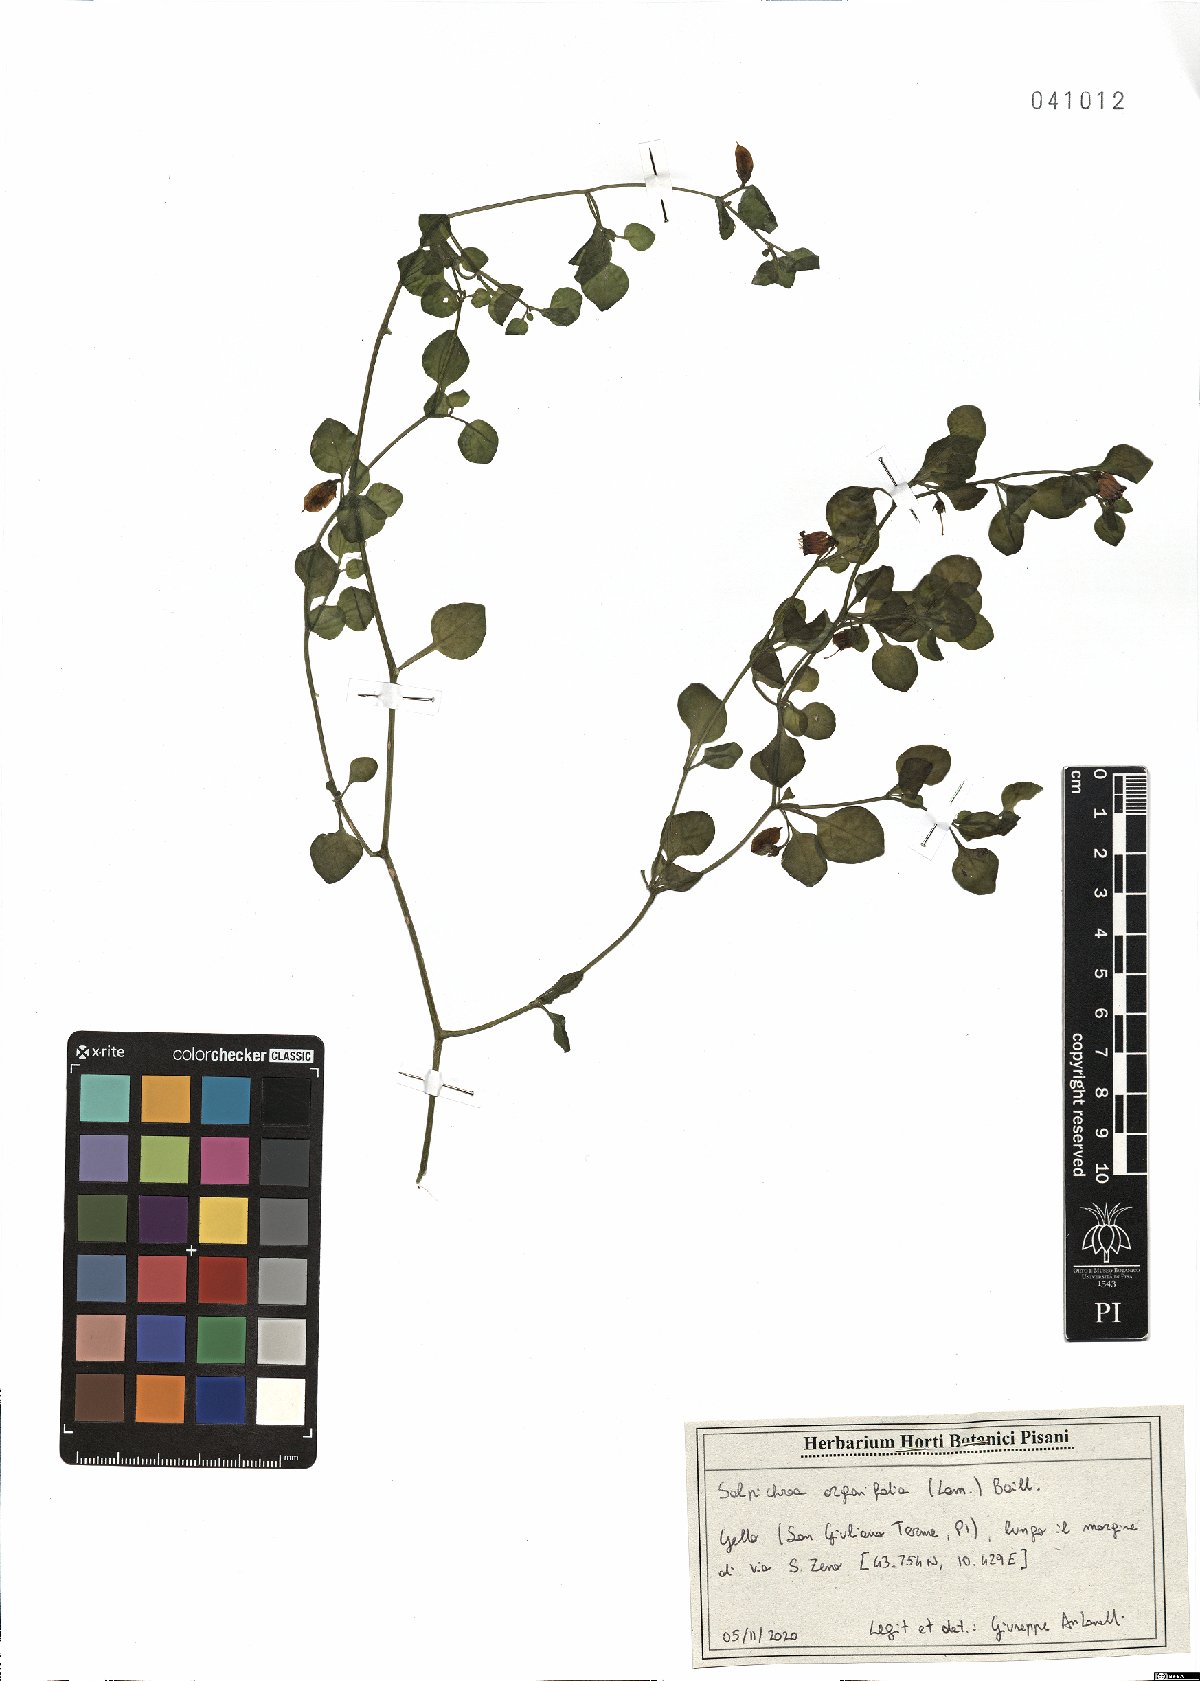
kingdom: Plantae
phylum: Tracheophyta
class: Magnoliopsida
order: Solanales
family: Solanaceae
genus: Salpichroa
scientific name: Salpichroa origanifolia
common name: Lily-of-the-valley-vine
